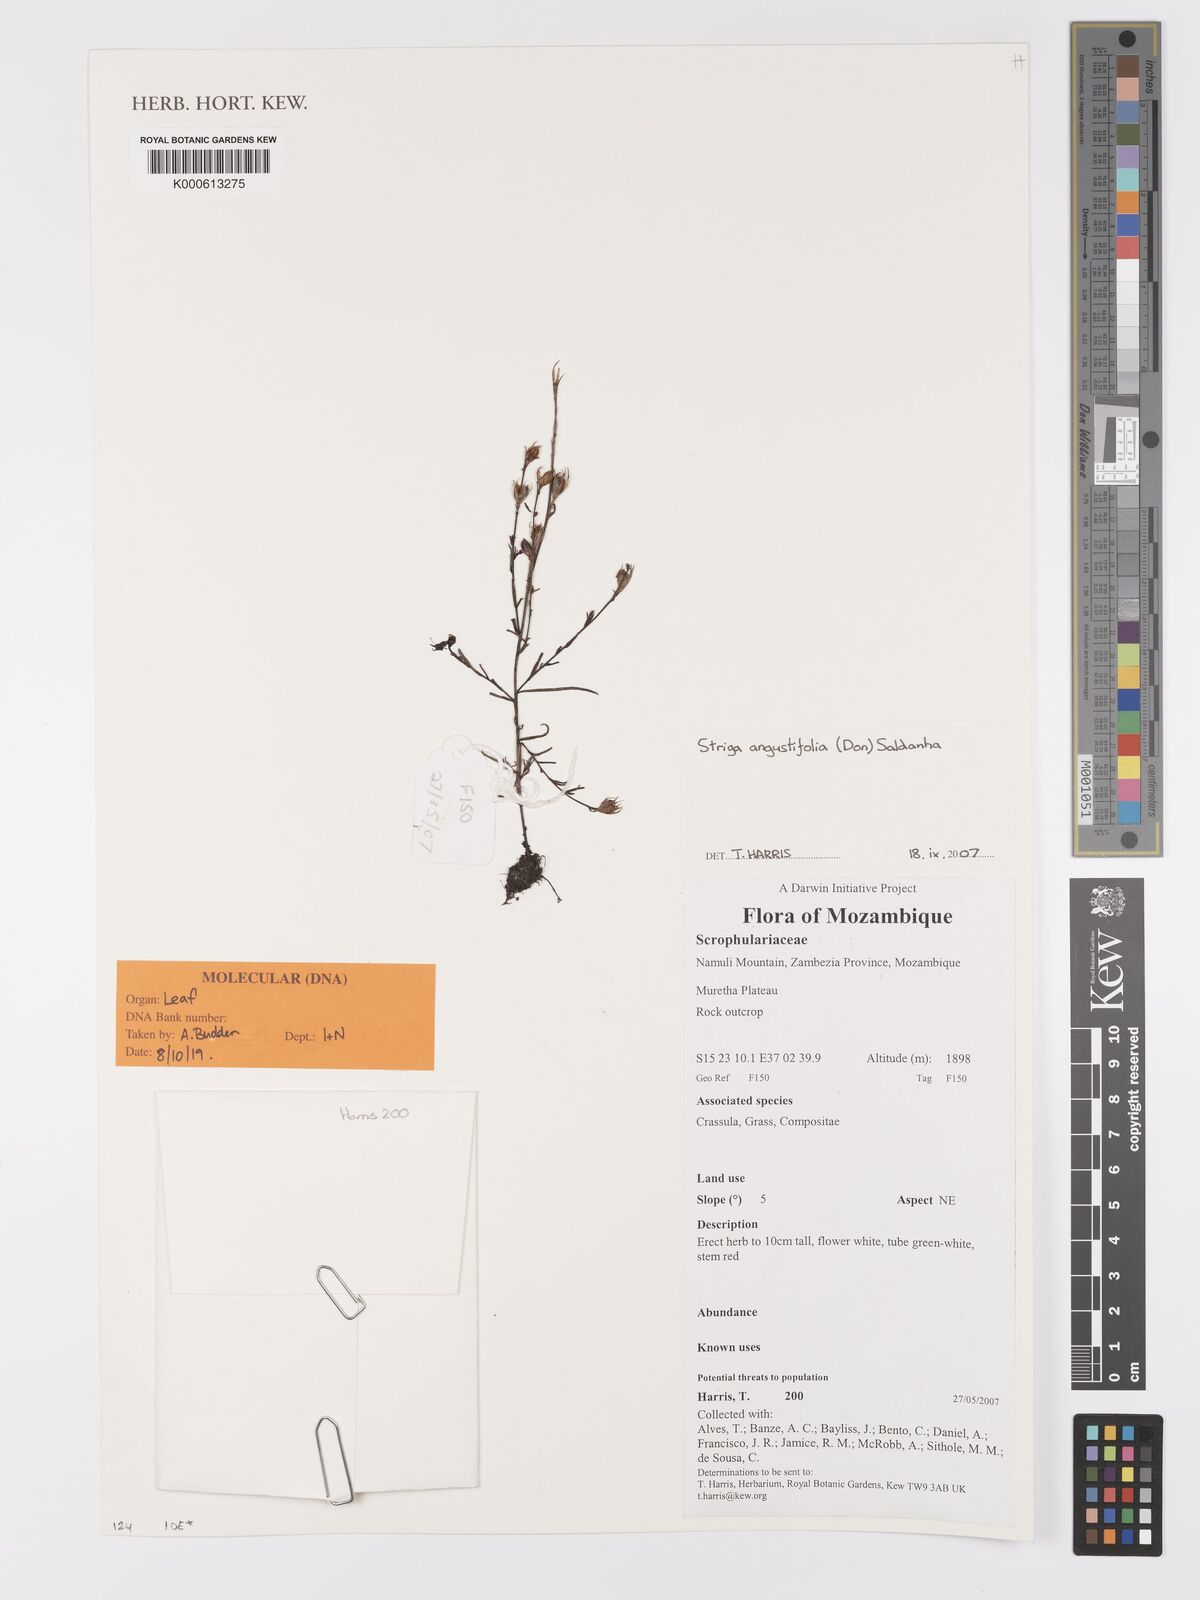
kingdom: Plantae
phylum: Tracheophyta
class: Magnoliopsida
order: Lamiales
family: Orobanchaceae
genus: Striga
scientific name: Striga angustifolia
